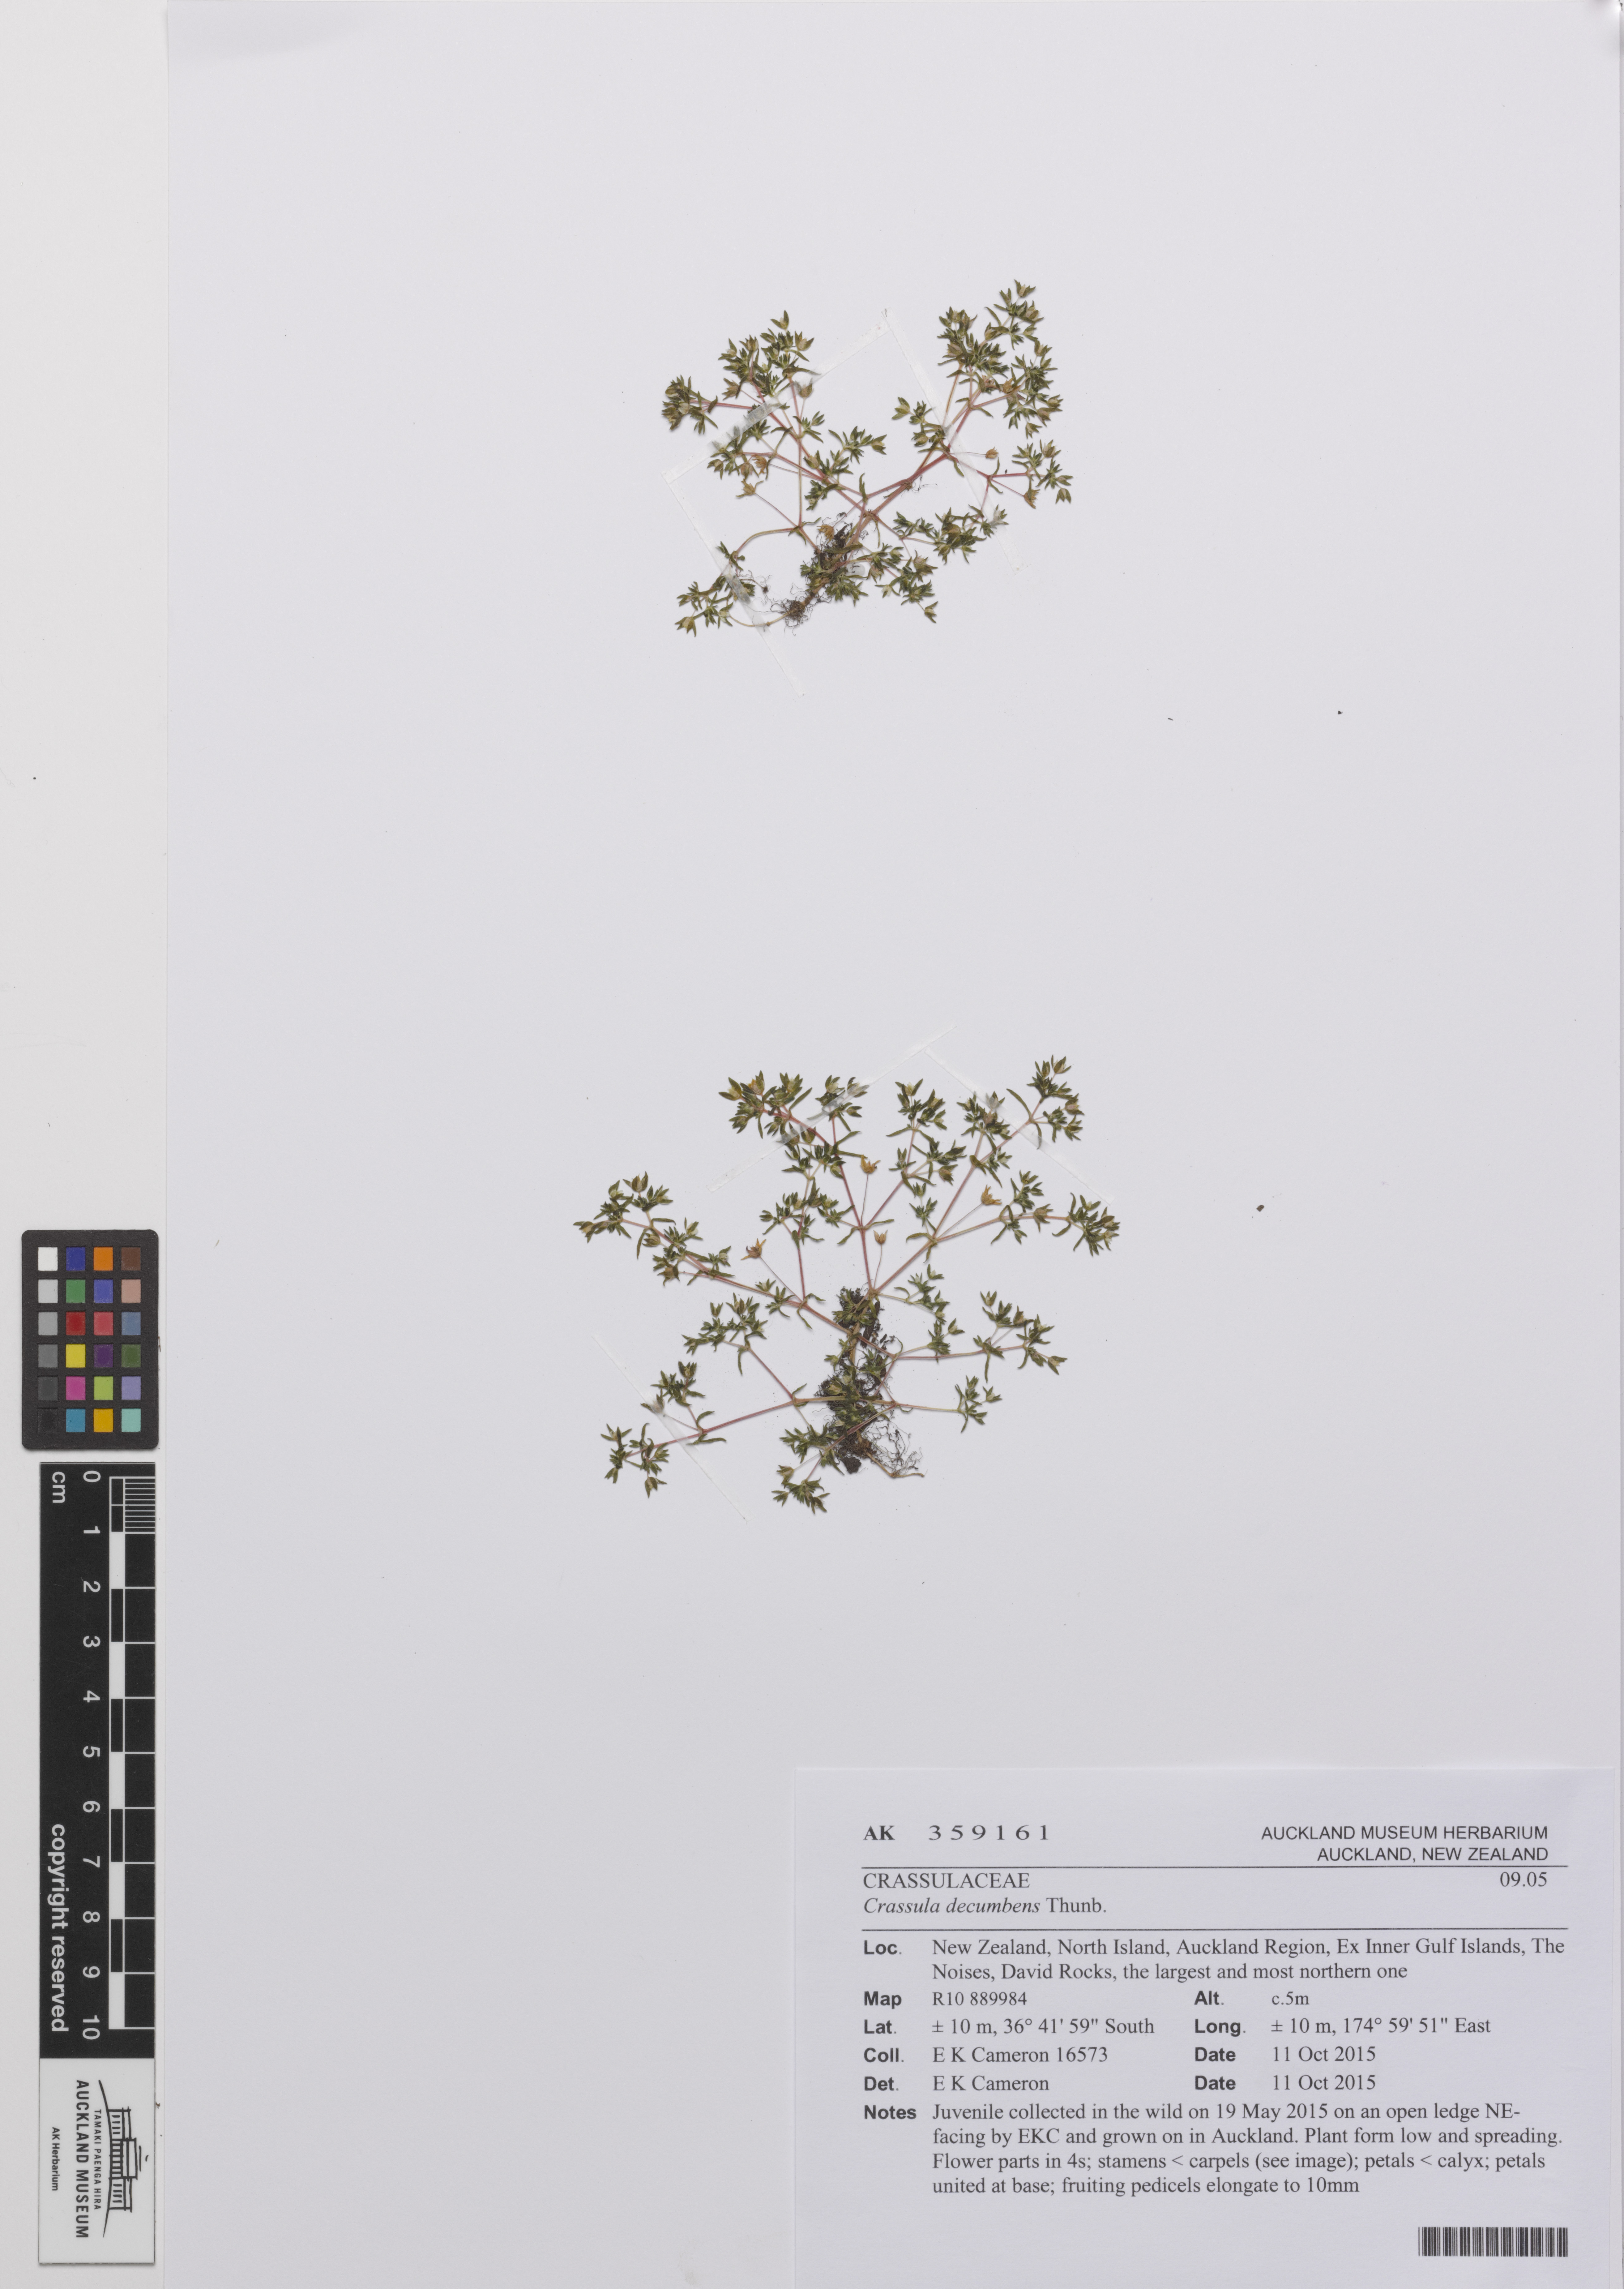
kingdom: Plantae
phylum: Tracheophyta
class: Magnoliopsida
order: Saxifragales
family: Crassulaceae
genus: Crassula
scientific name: Crassula decumbens
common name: Scilly pigmyweed
